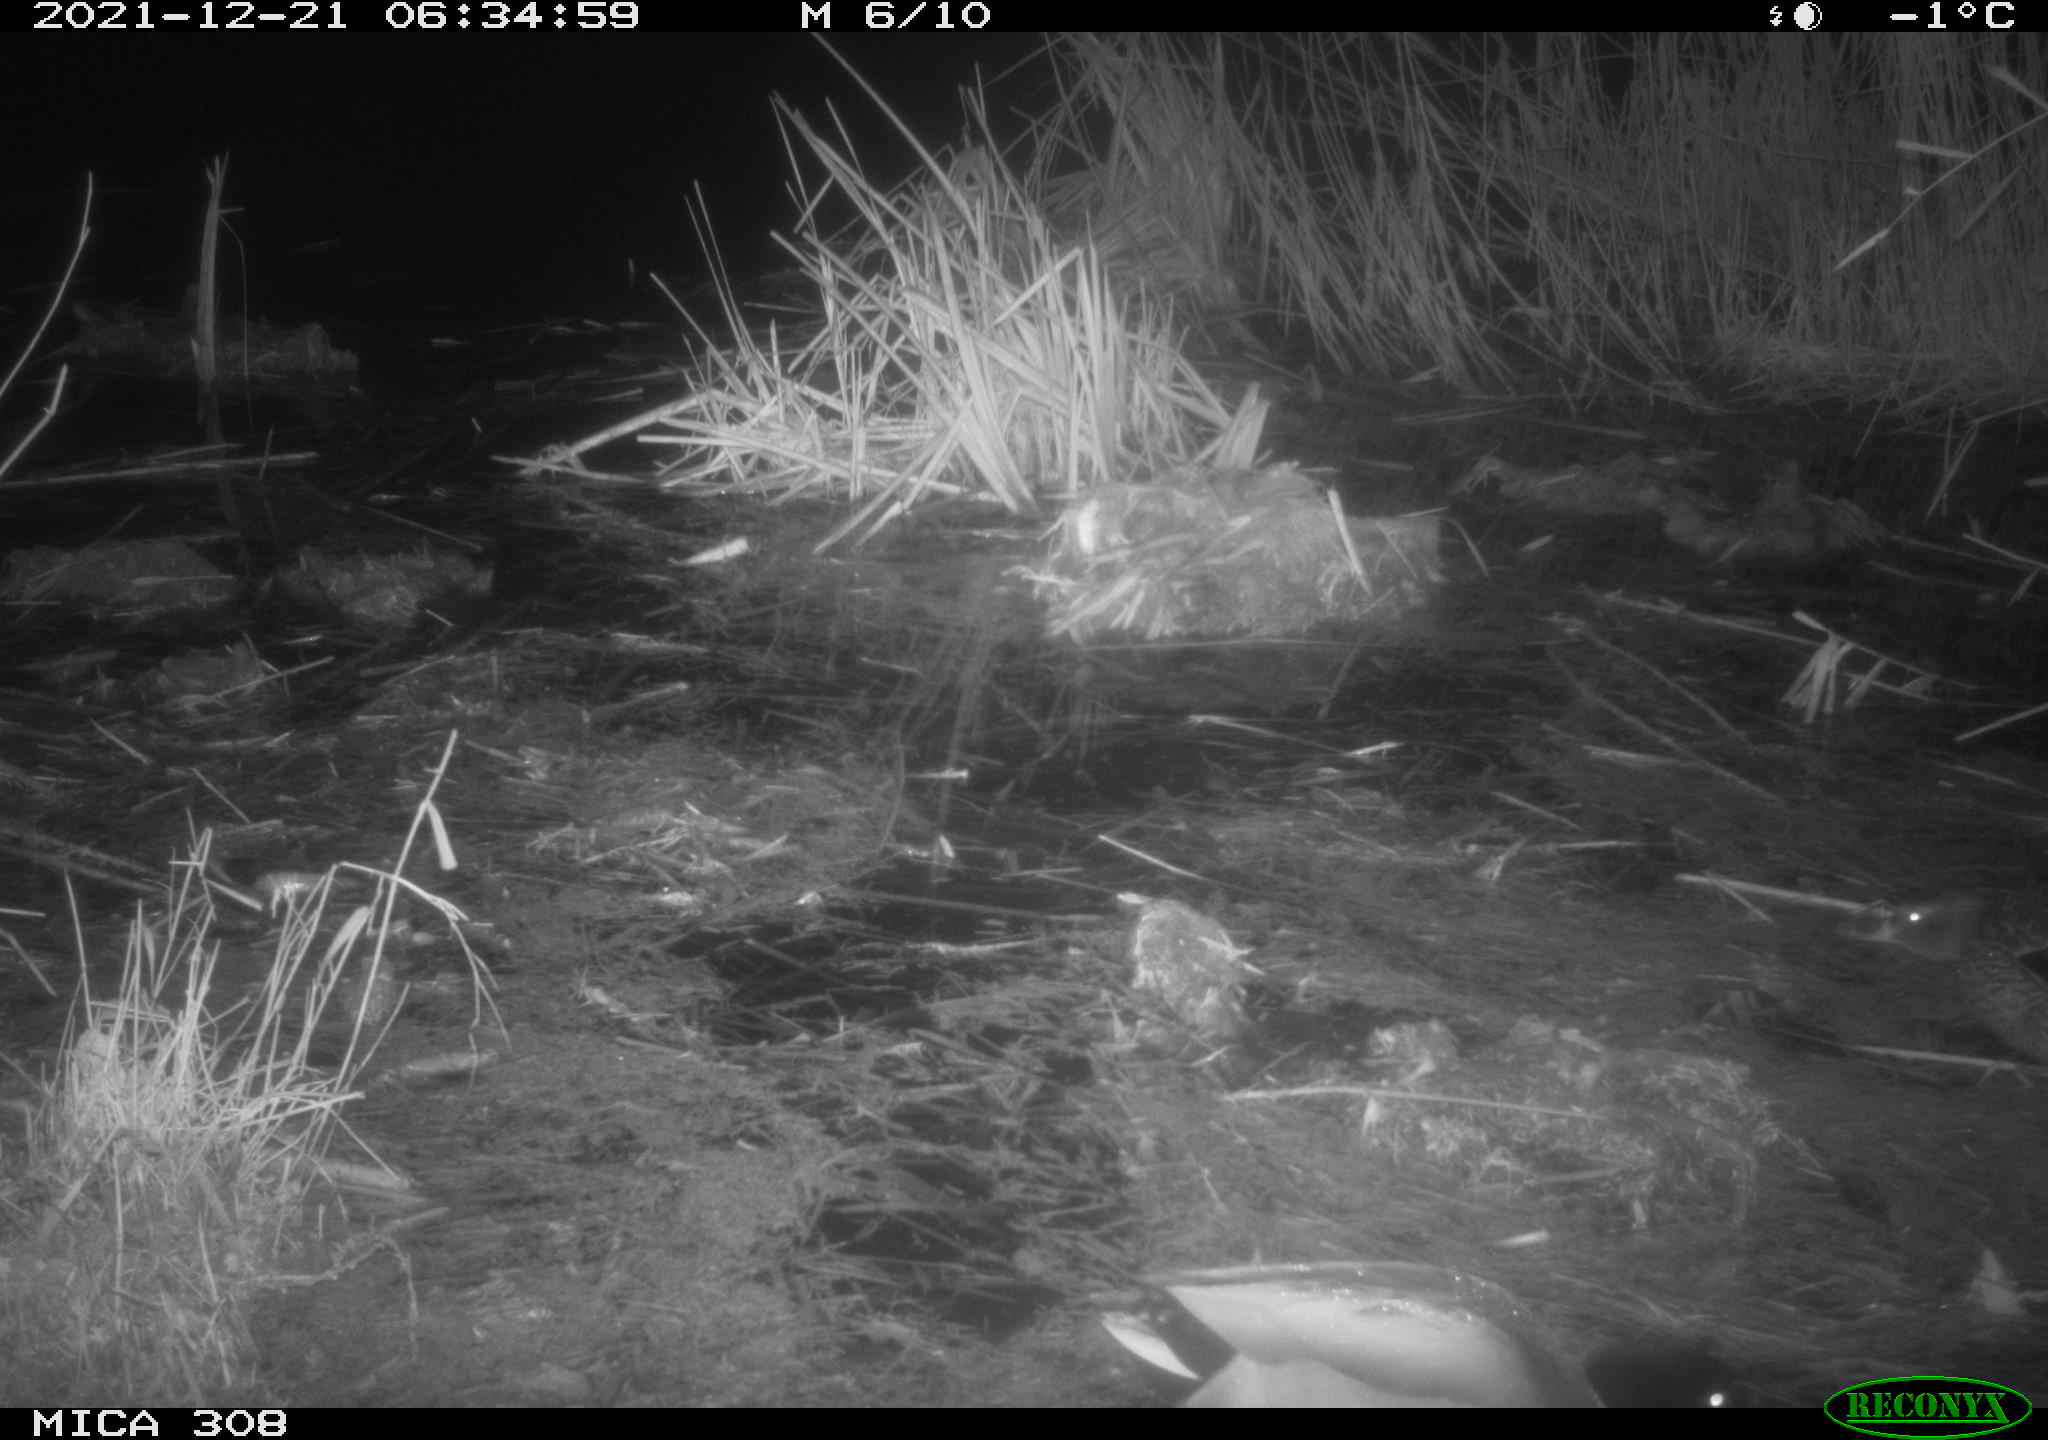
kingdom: Animalia
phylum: Chordata
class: Aves
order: Anseriformes
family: Anatidae
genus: Anas
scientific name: Anas platyrhynchos
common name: Mallard
